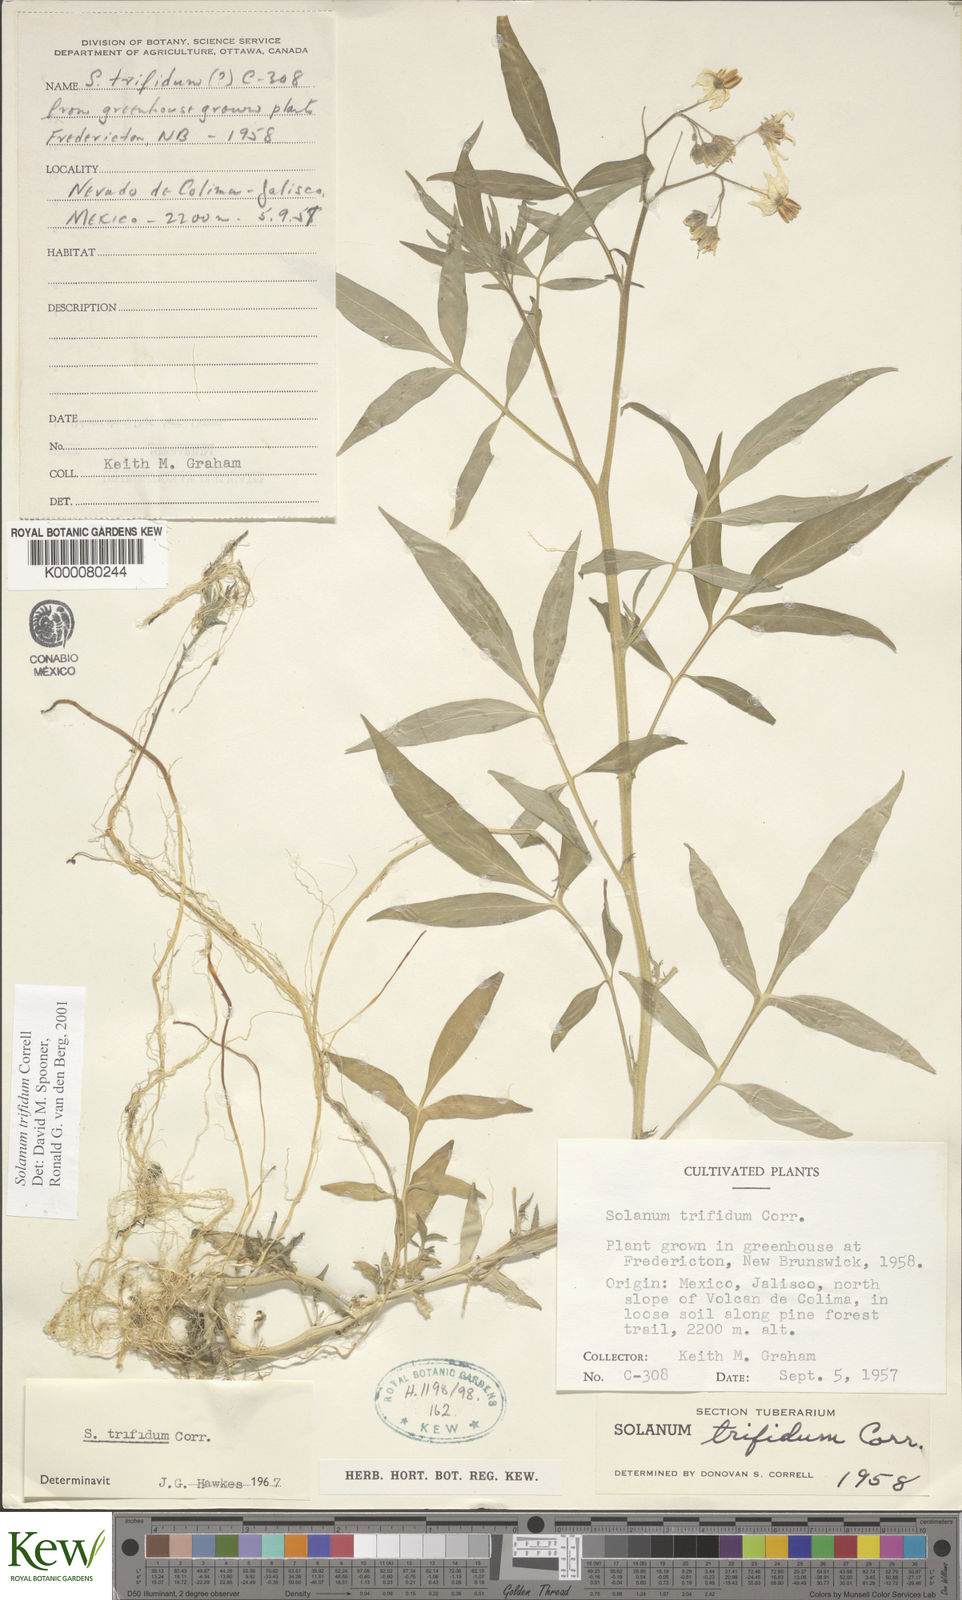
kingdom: Plantae
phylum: Tracheophyta
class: Magnoliopsida
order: Solanales
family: Solanaceae
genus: Solanum
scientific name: Solanum trifidum
